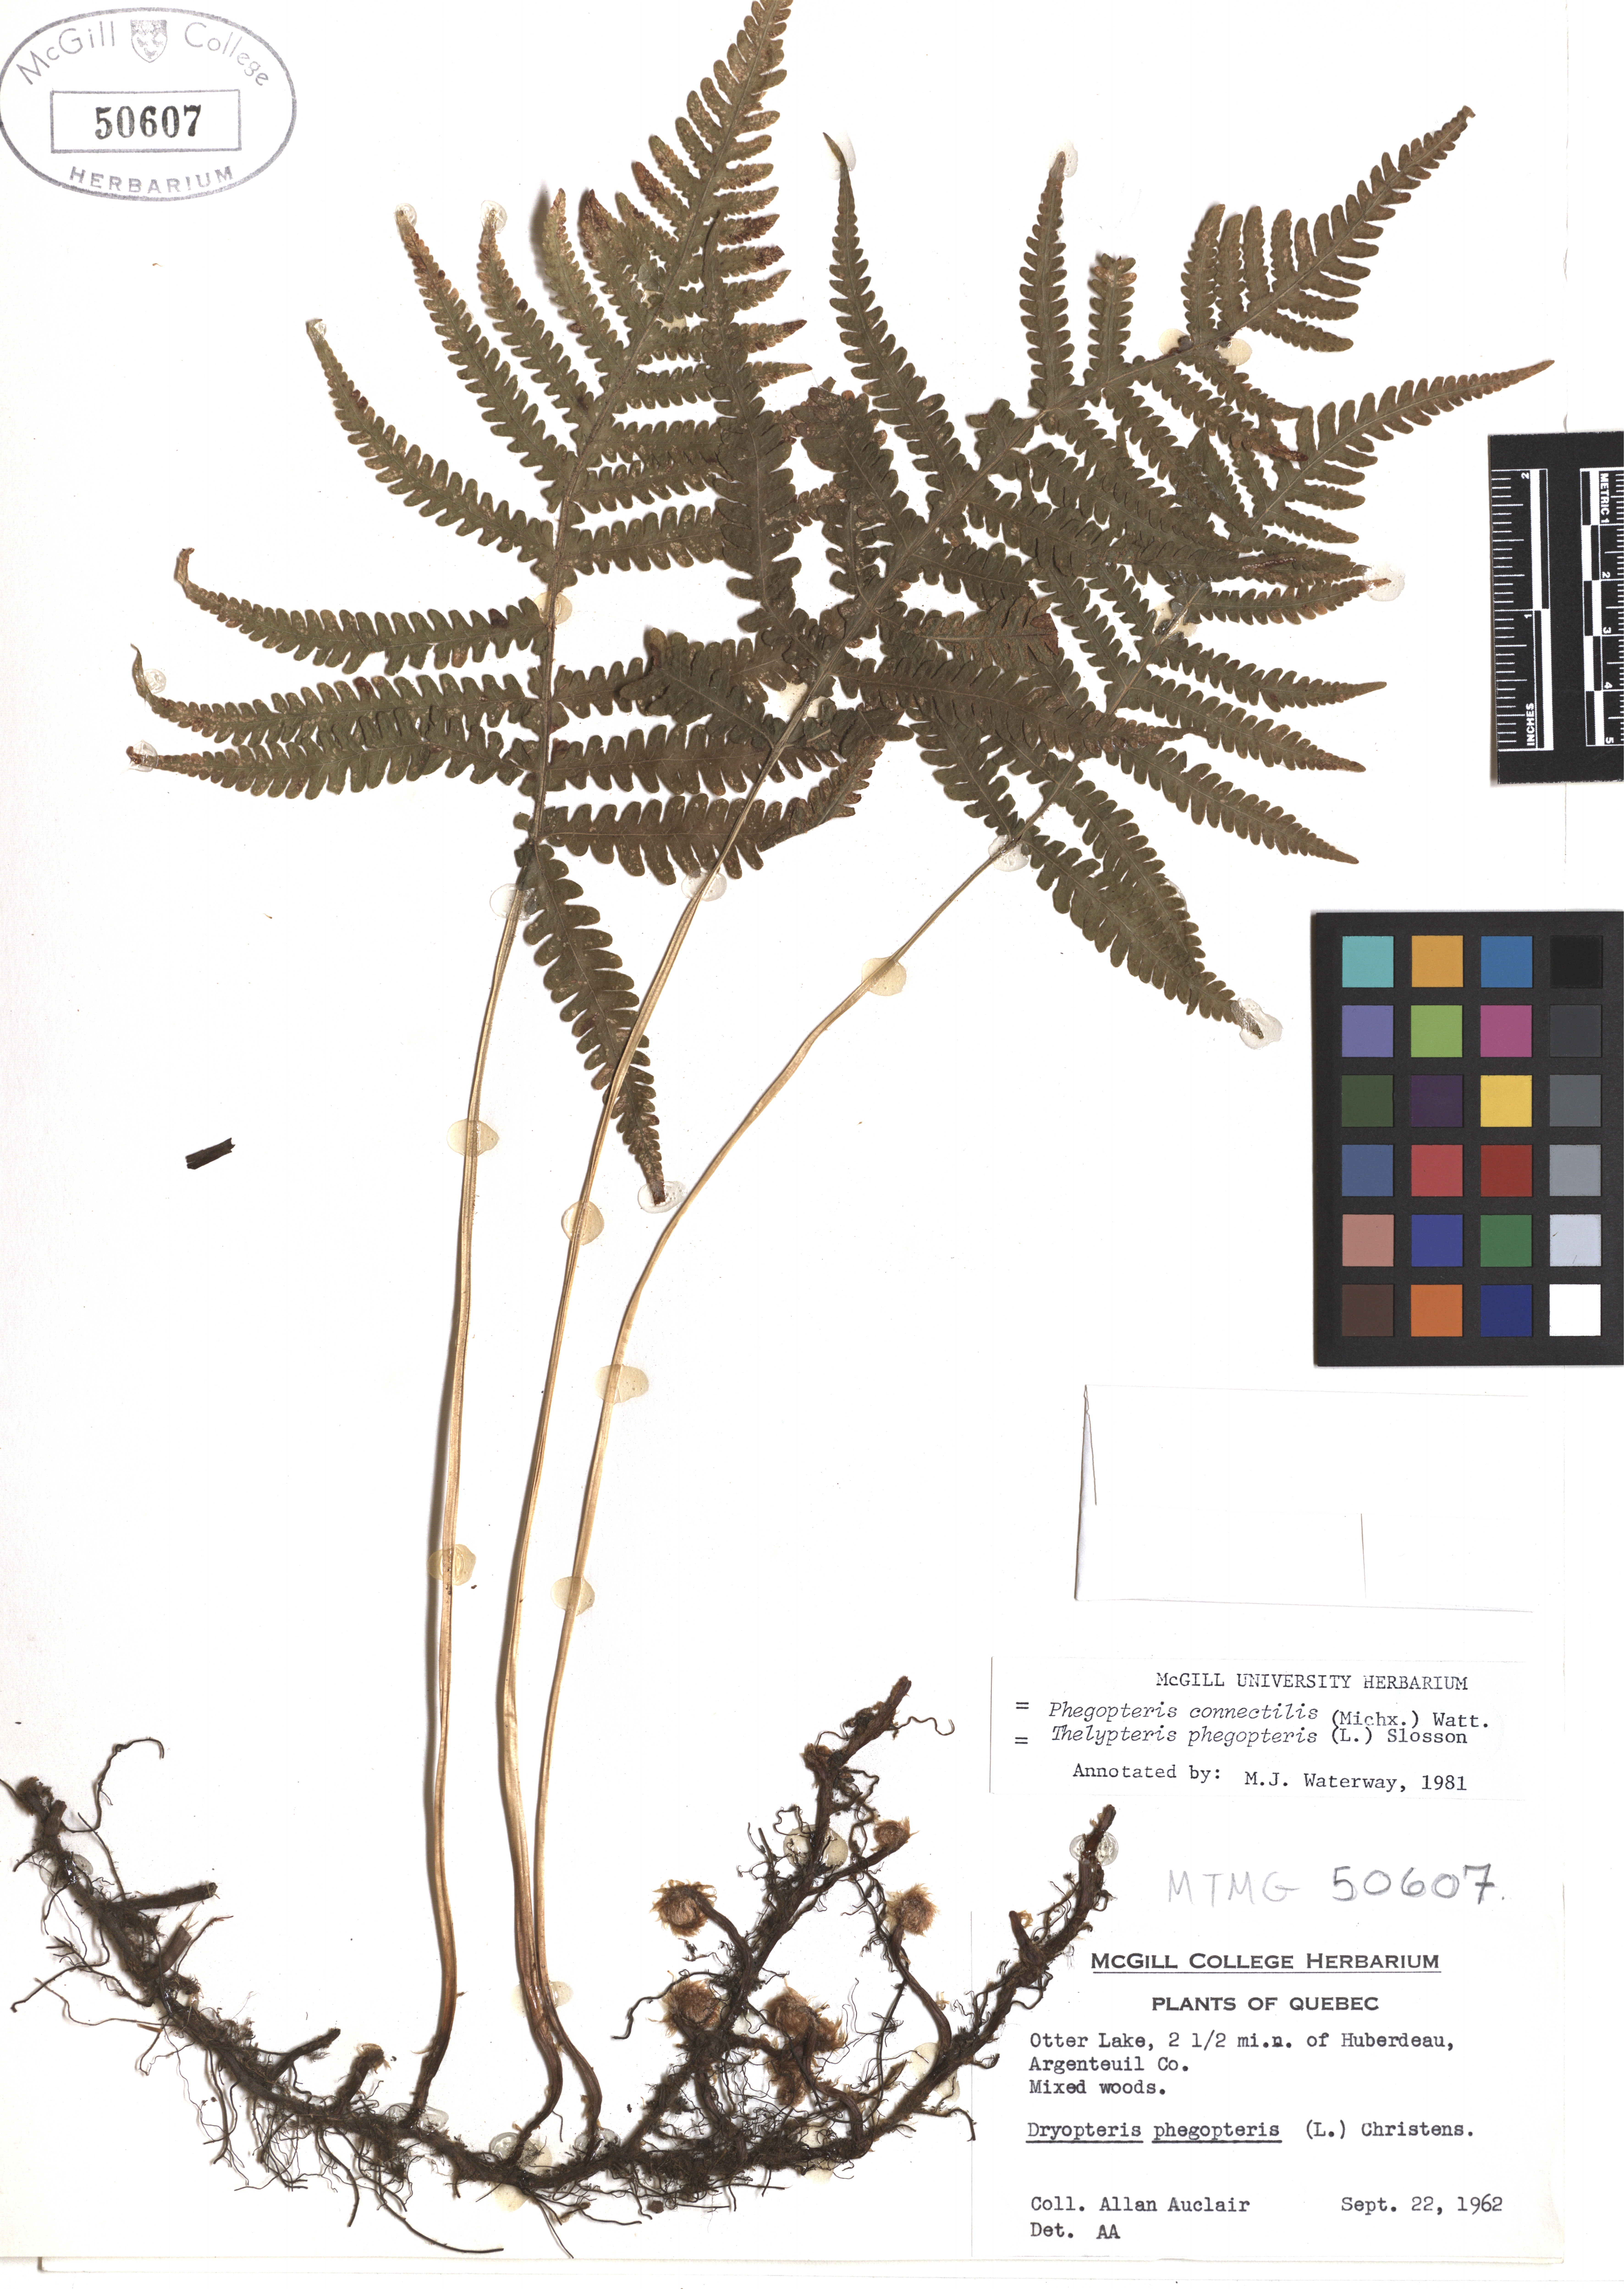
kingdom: Plantae
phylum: Tracheophyta
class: Polypodiopsida
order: Polypodiales
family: Thelypteridaceae
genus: Phegopteris
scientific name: Phegopteris connectilis
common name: Beech fern
